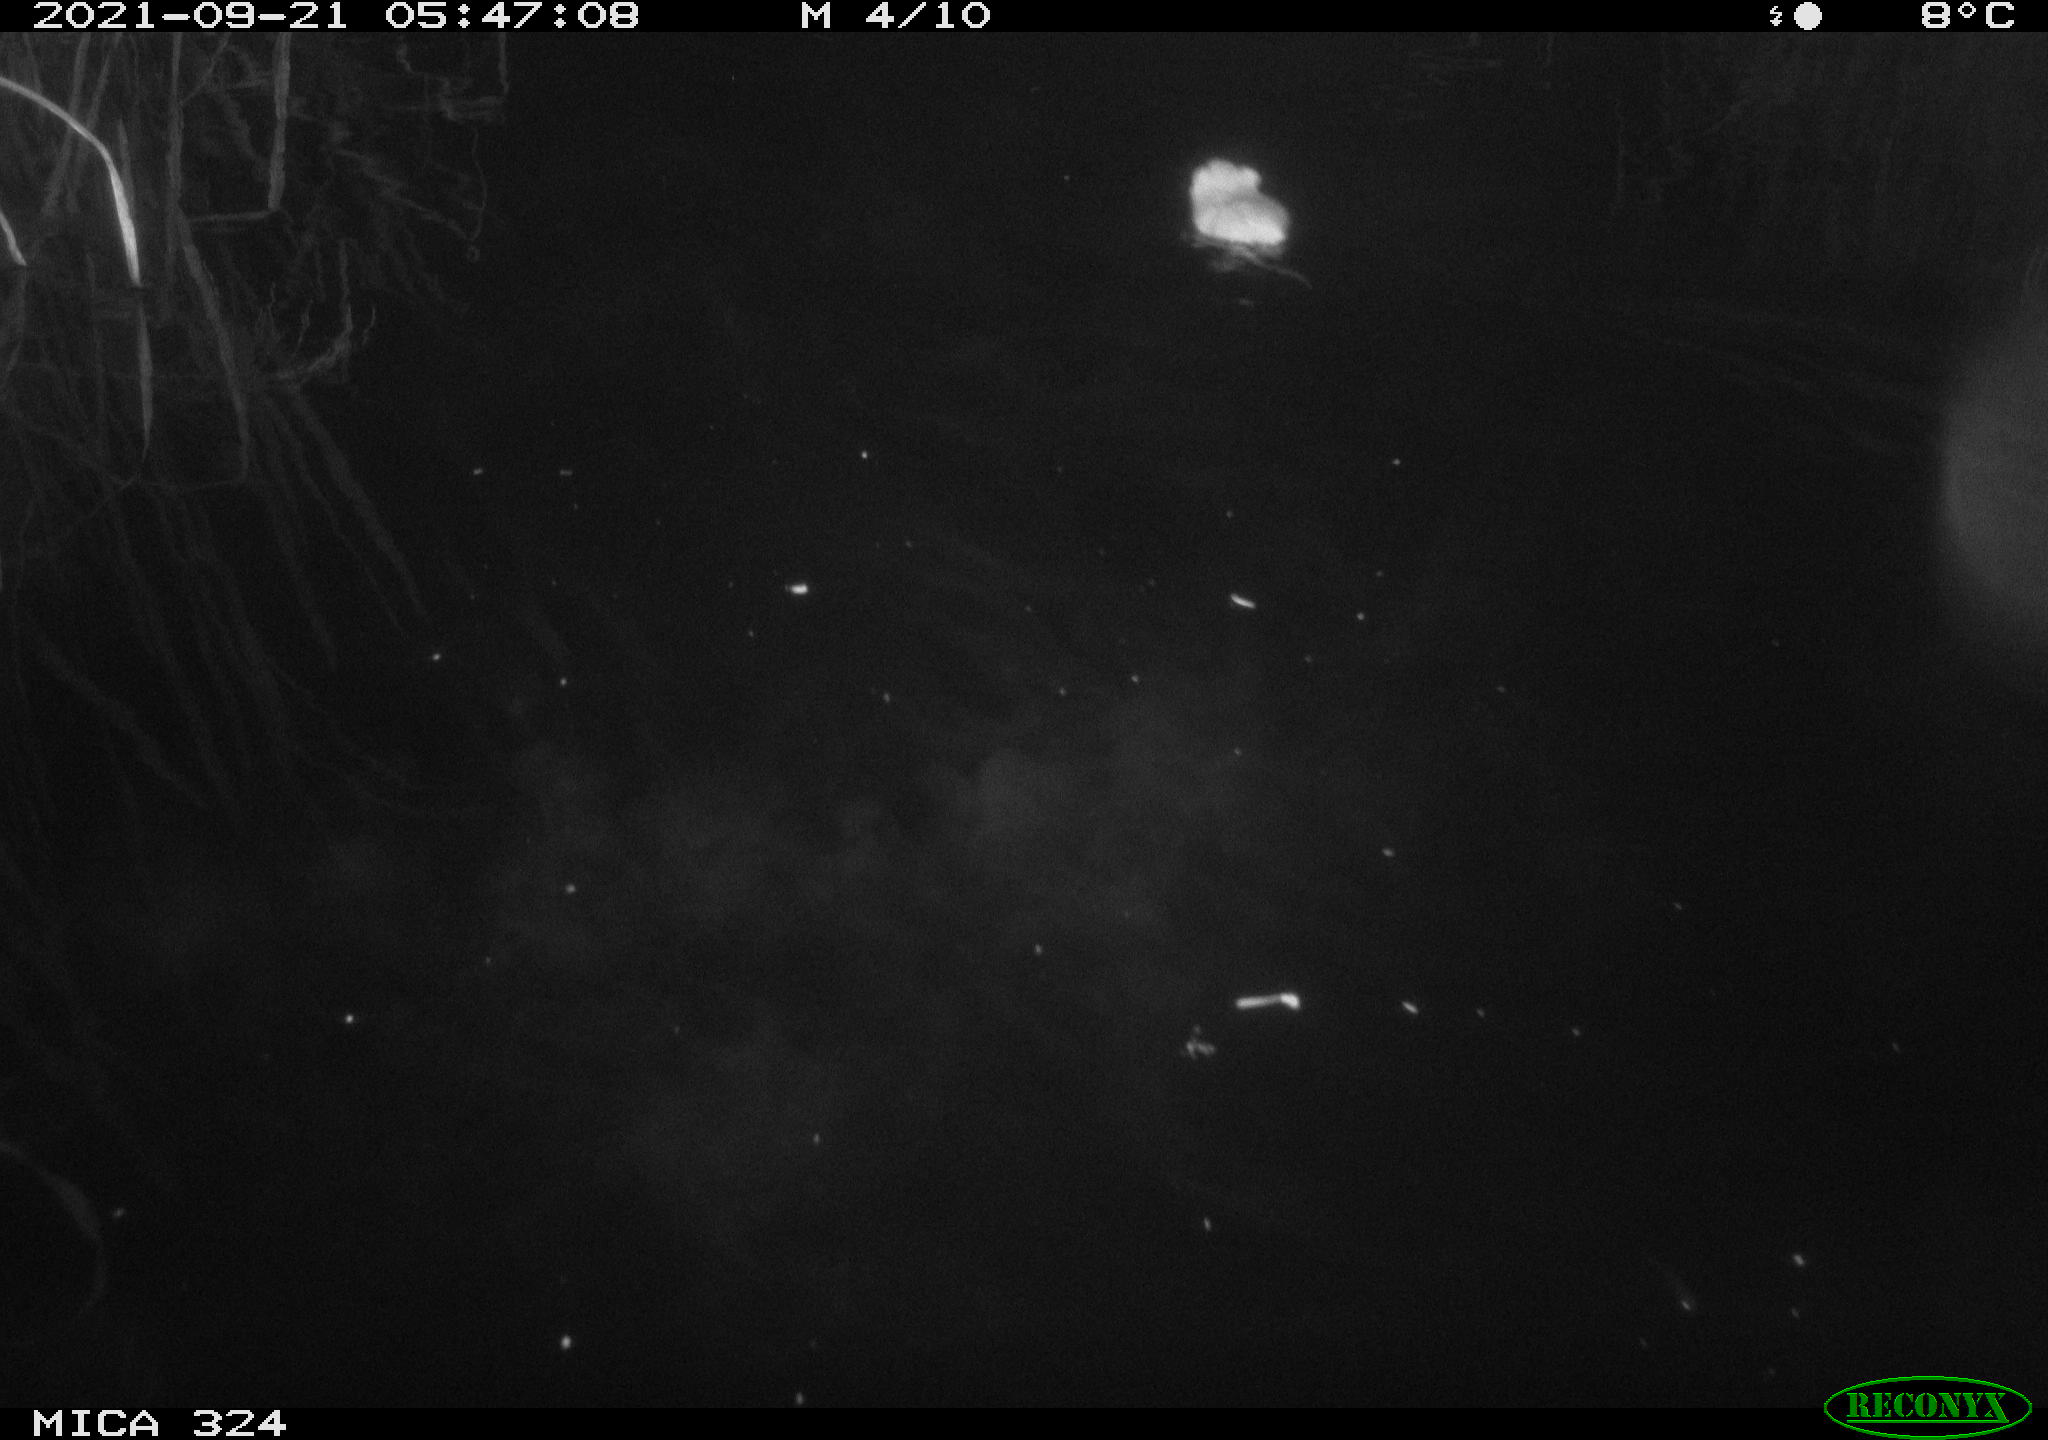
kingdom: Animalia
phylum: Chordata
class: Mammalia
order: Rodentia
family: Cricetidae
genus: Ondatra
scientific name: Ondatra zibethicus
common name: Muskrat
